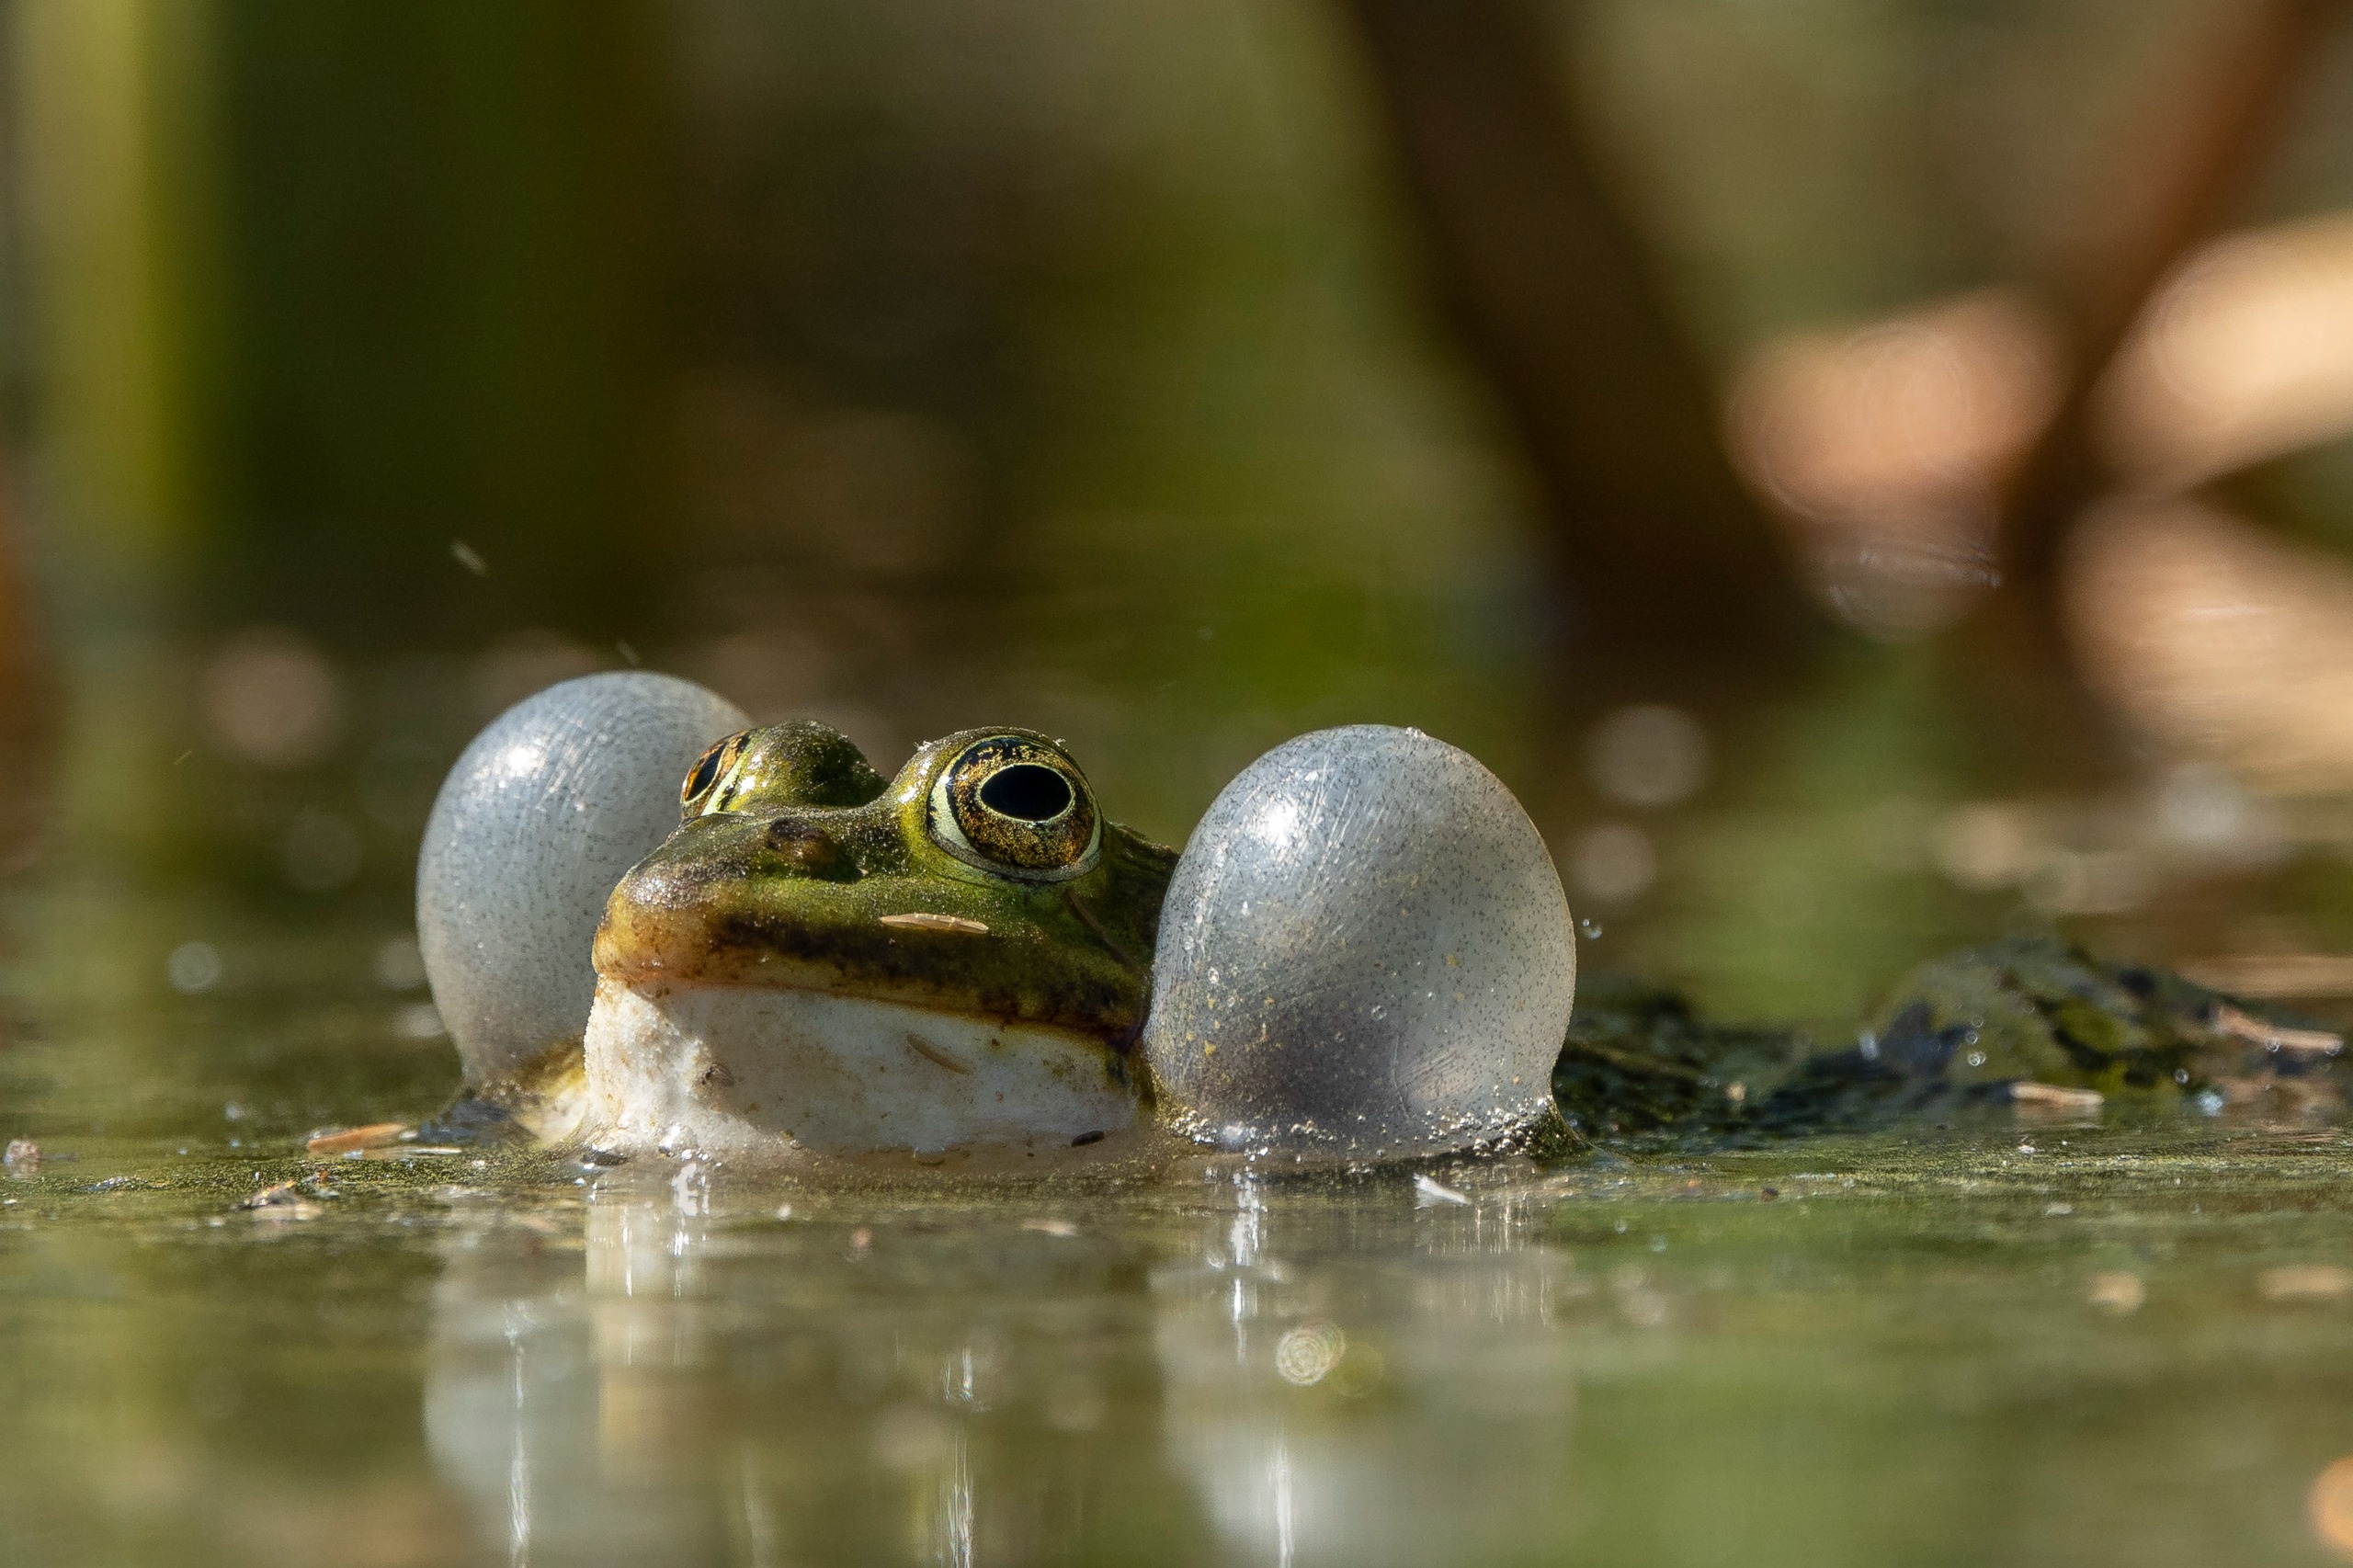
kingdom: Animalia
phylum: Chordata
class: Amphibia
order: Anura
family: Ranidae
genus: Pelophylax
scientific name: Pelophylax lessonae
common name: Grøn frø
